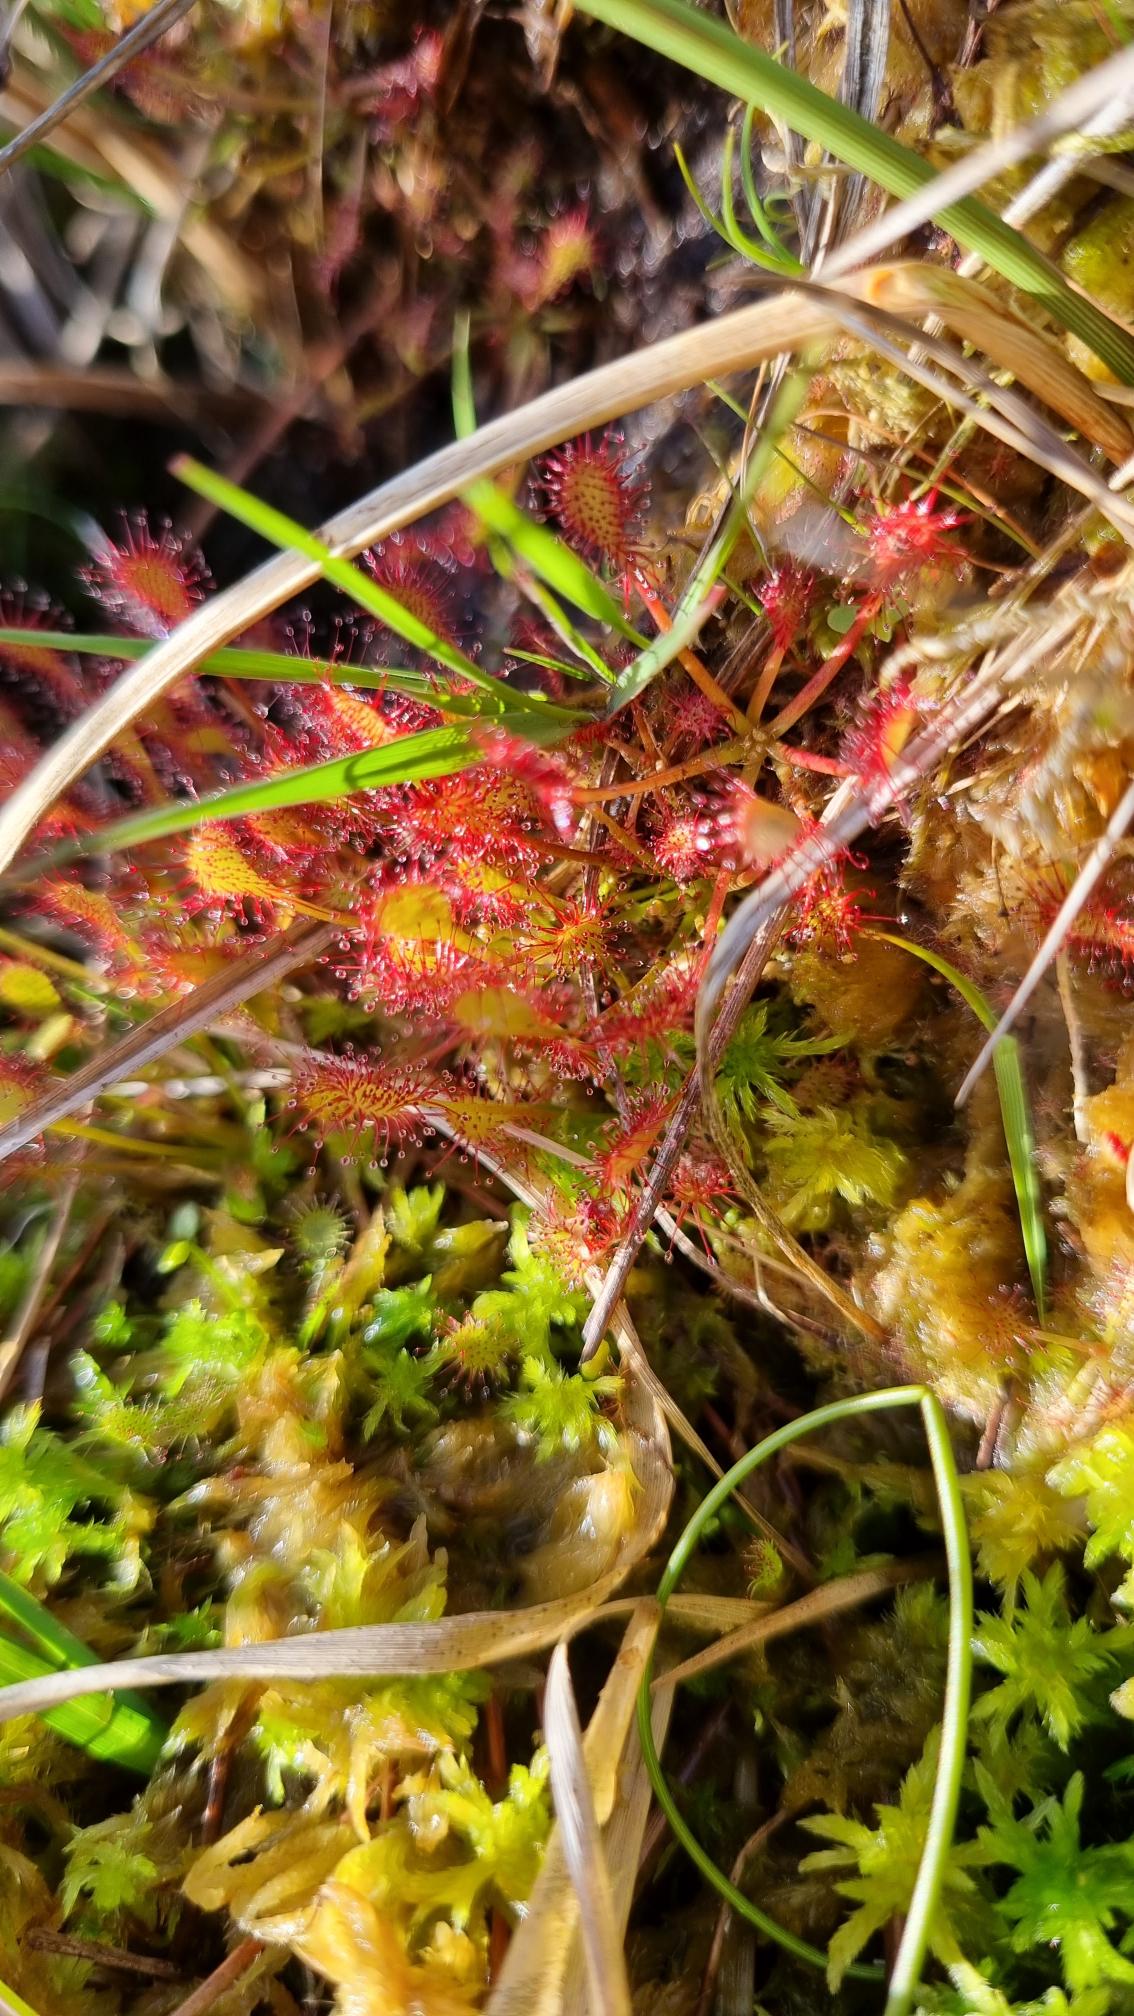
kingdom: Plantae
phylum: Tracheophyta
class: Magnoliopsida
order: Caryophyllales
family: Droseraceae
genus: Drosera
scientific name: Drosera intermedia
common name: Liden soldug
